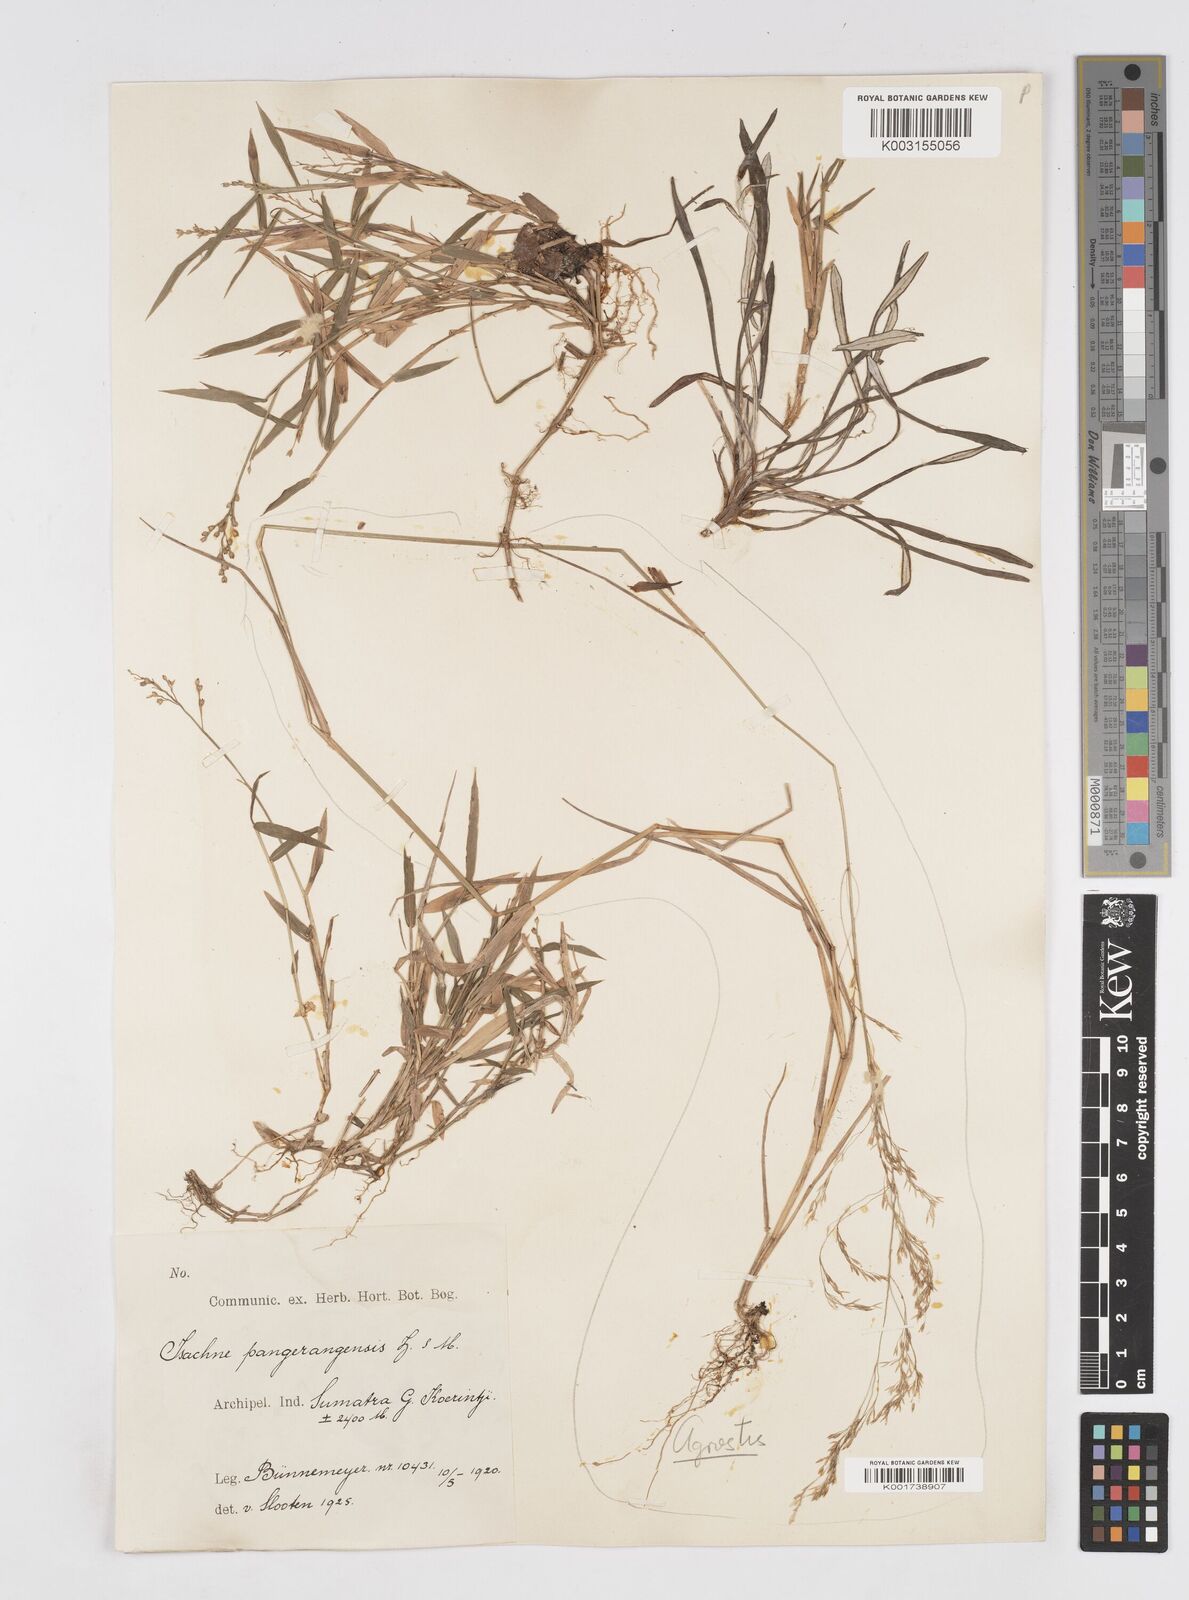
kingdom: Plantae
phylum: Tracheophyta
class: Liliopsida
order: Poales
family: Poaceae
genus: Isachne
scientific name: Isachne pangerangensis
